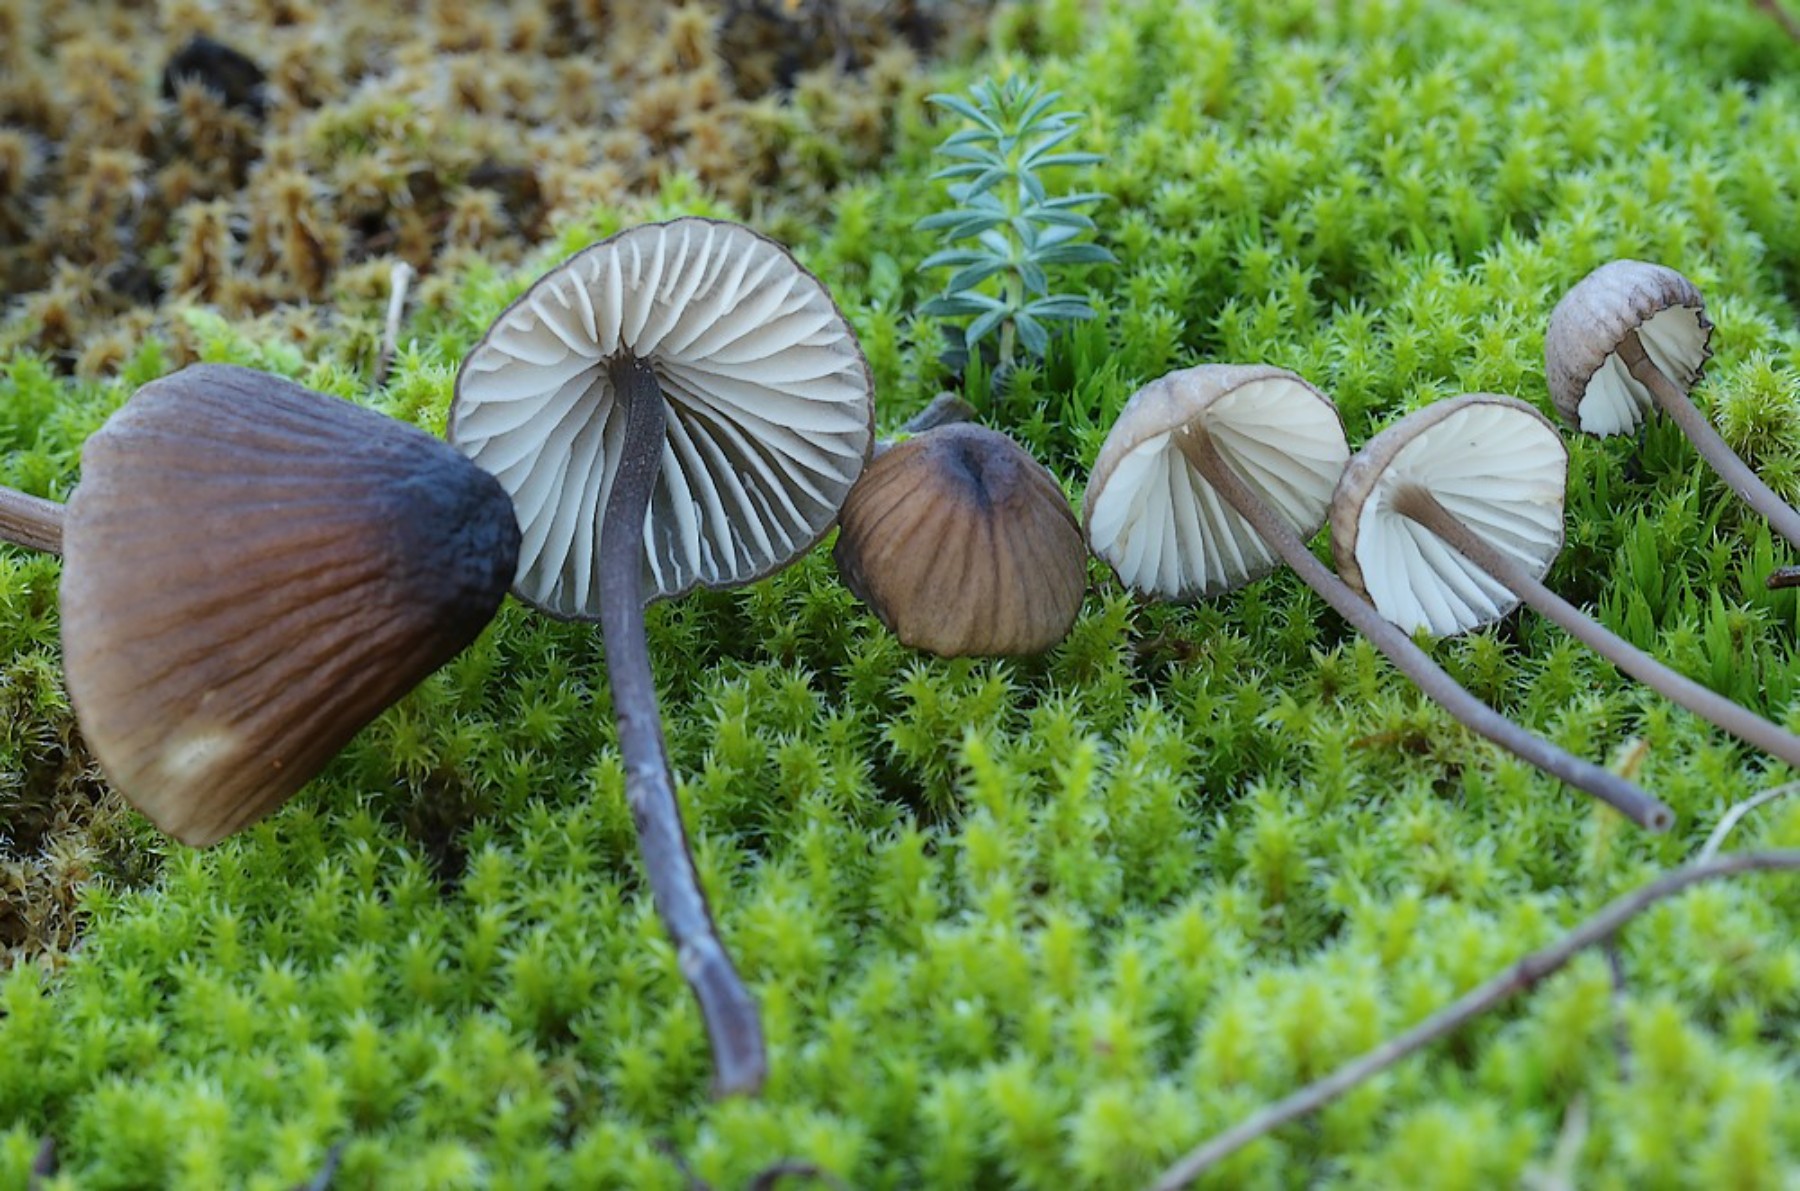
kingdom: Fungi
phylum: Basidiomycota
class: Agaricomycetes
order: Agaricales
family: Mycenaceae
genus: Mycena
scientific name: Mycena galopus
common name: hvidmælket huesvamp
